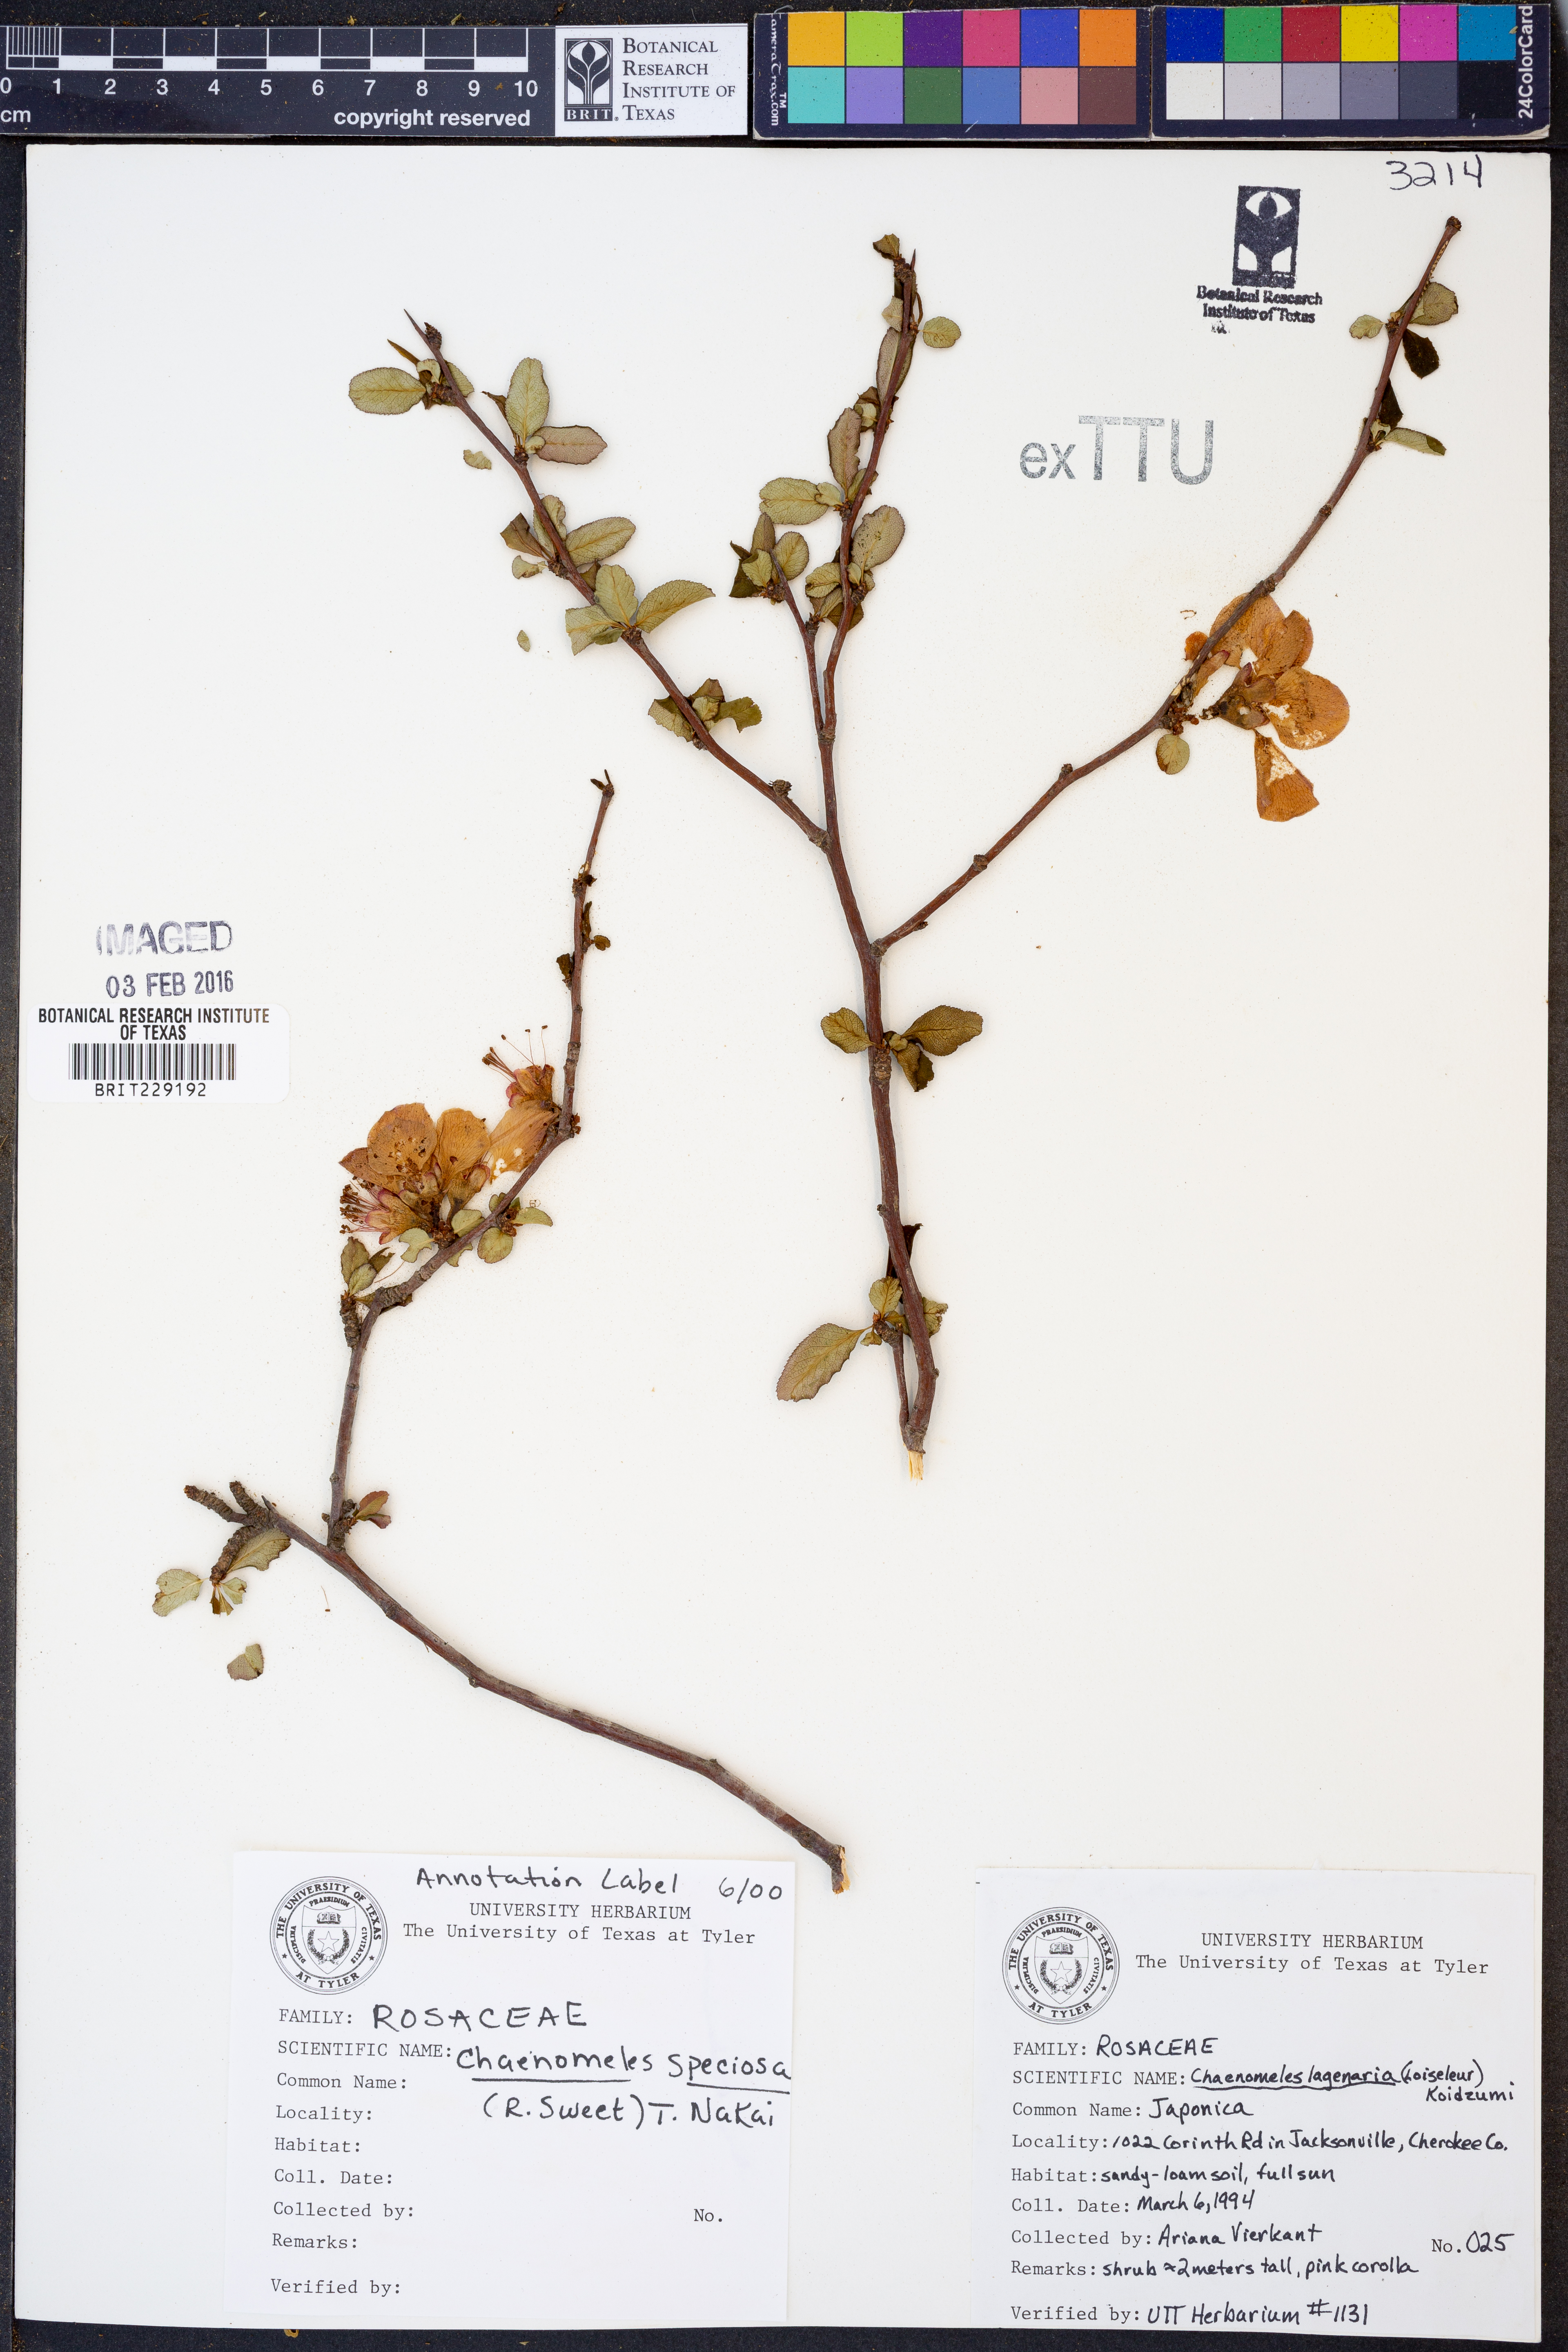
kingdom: Plantae
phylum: Tracheophyta
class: Magnoliopsida
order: Rosales
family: Rosaceae
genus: Chaenomeles
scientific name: Chaenomeles speciosa
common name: Japanese quince
